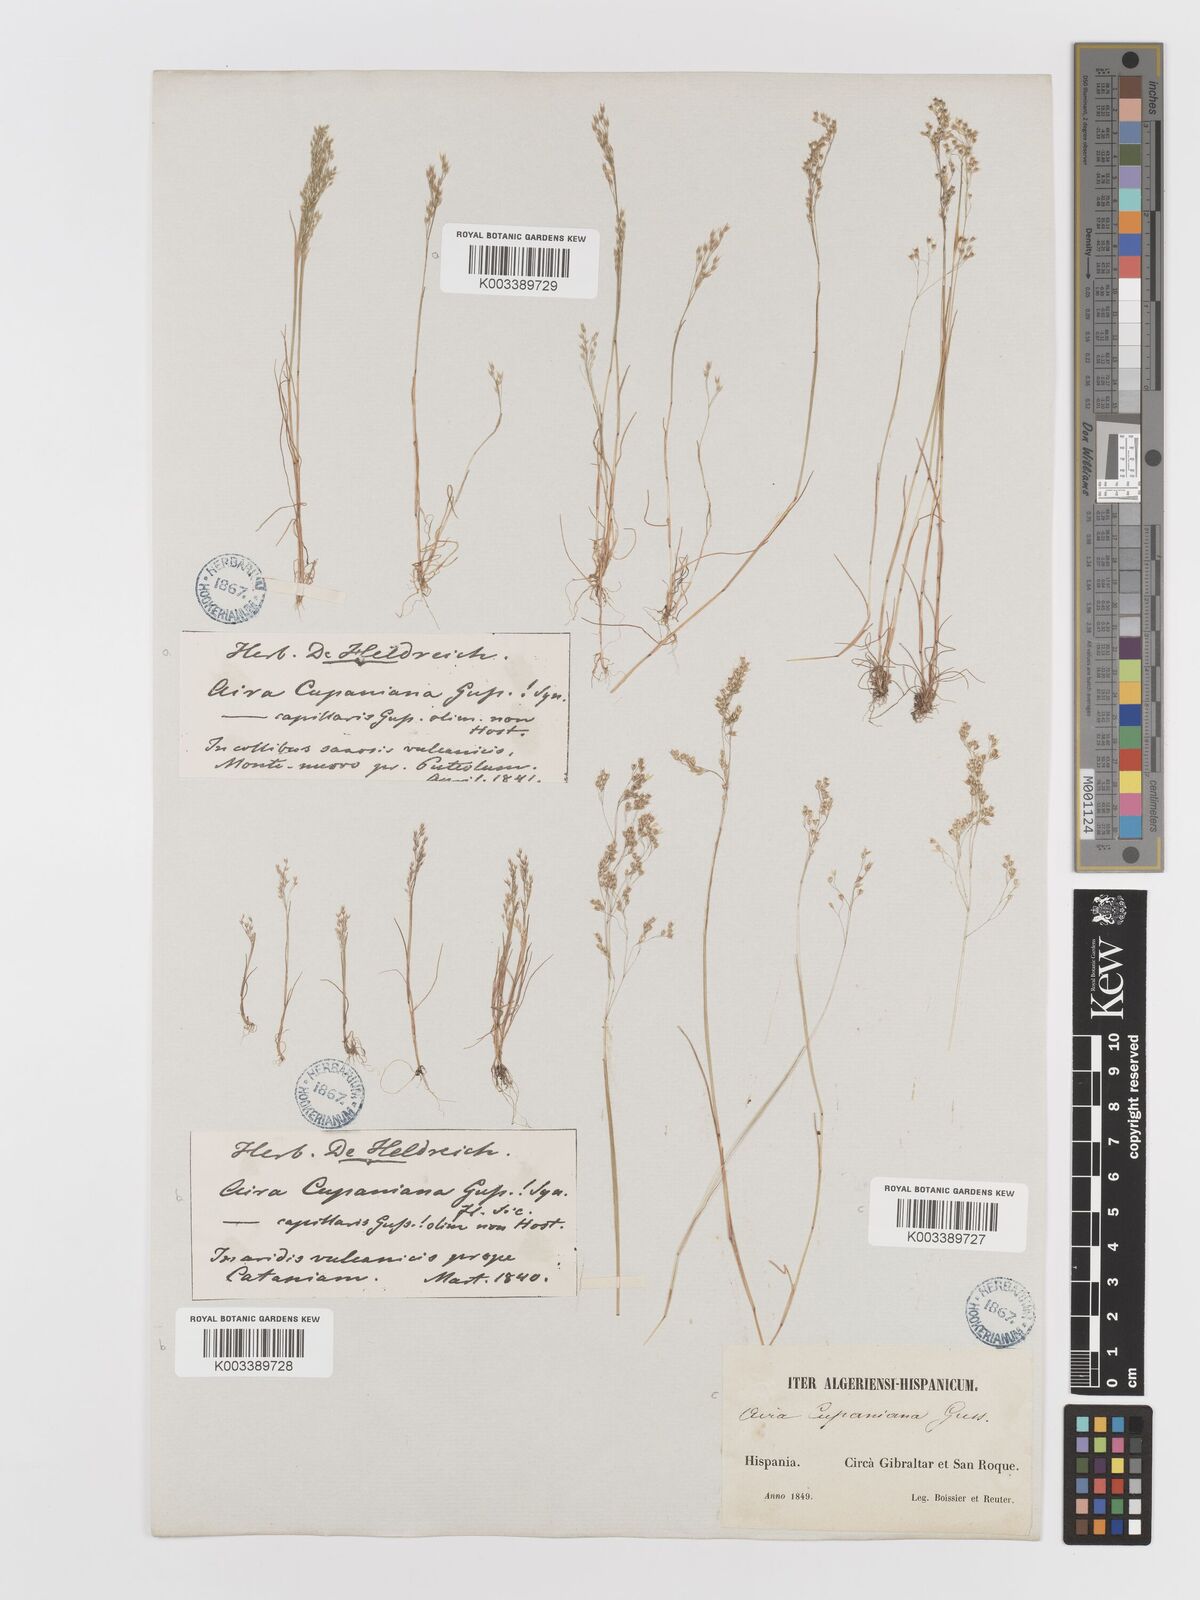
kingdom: Plantae
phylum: Tracheophyta
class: Liliopsida
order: Poales
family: Poaceae
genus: Aira
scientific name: Aira caryophyllea
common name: Silver hairgrass
